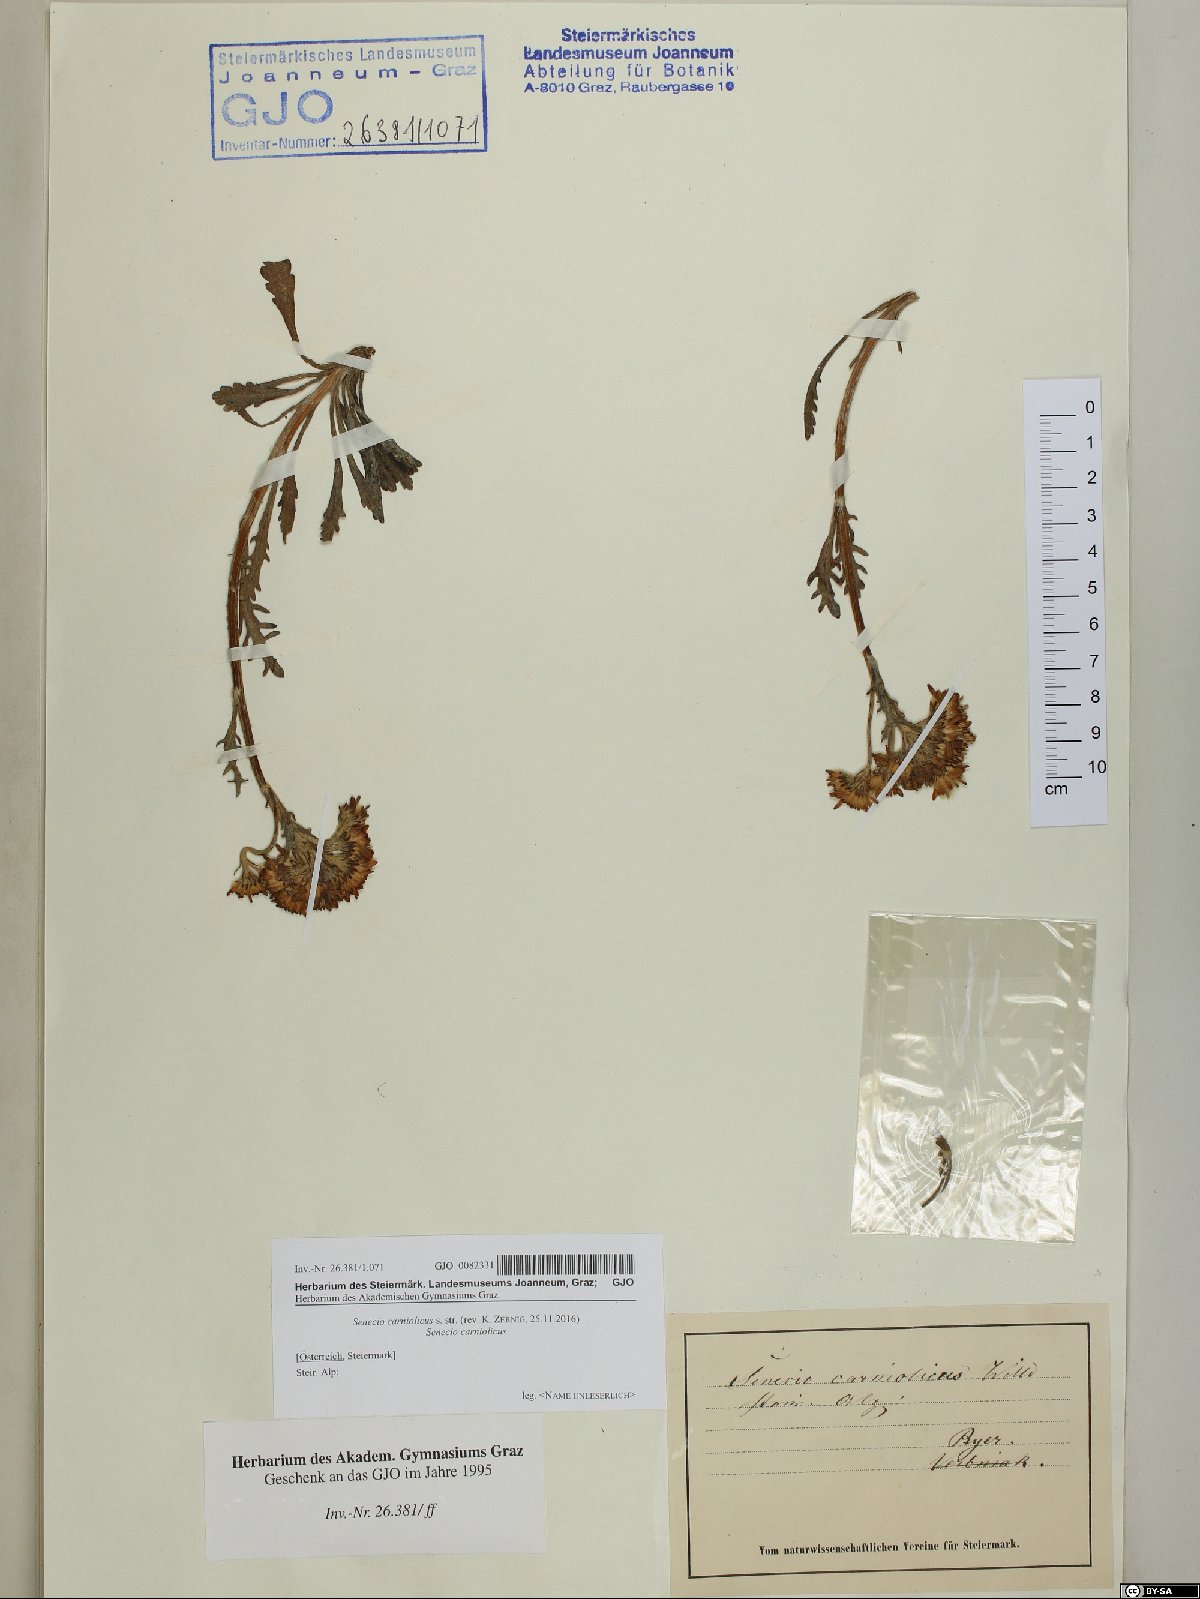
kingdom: Plantae
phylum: Tracheophyta
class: Magnoliopsida
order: Asterales
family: Asteraceae
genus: Jacobaea
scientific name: Jacobaea carniolica
